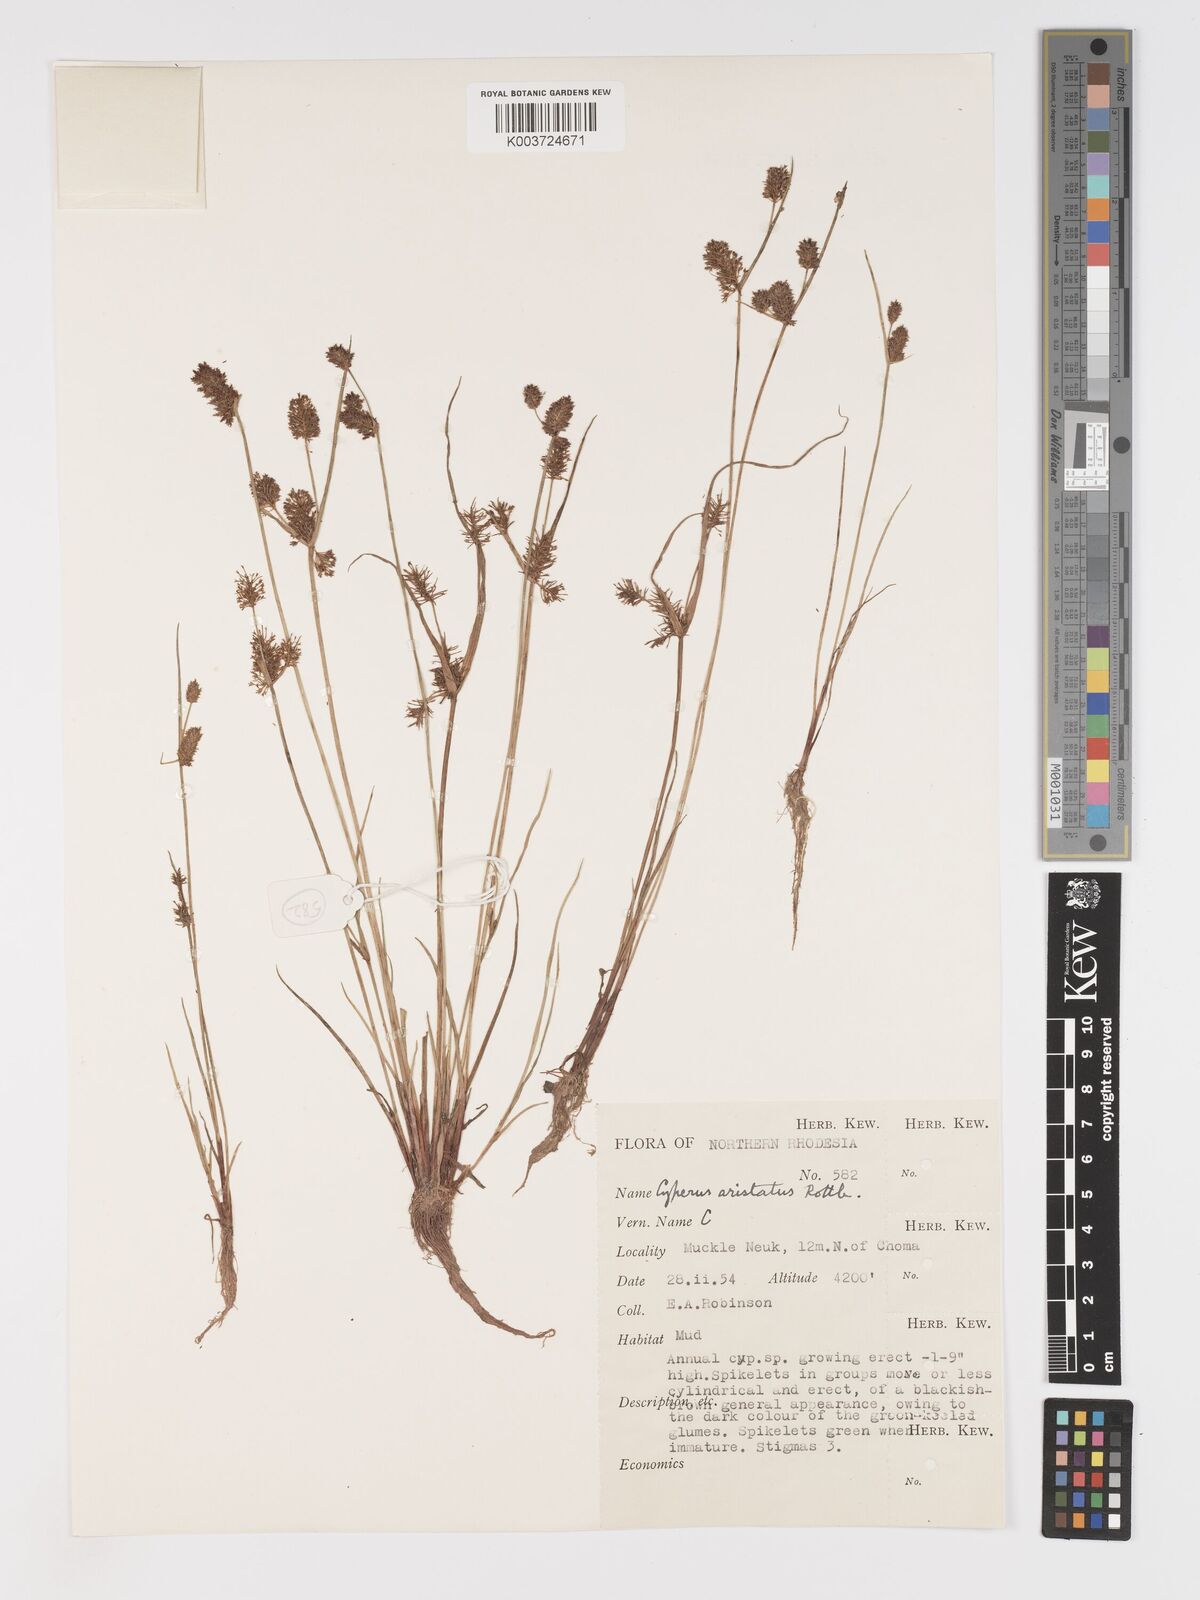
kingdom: Plantae
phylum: Tracheophyta
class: Liliopsida
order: Poales
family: Cyperaceae
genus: Cyperus
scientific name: Cyperus squarrosus
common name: Awned cyperus
